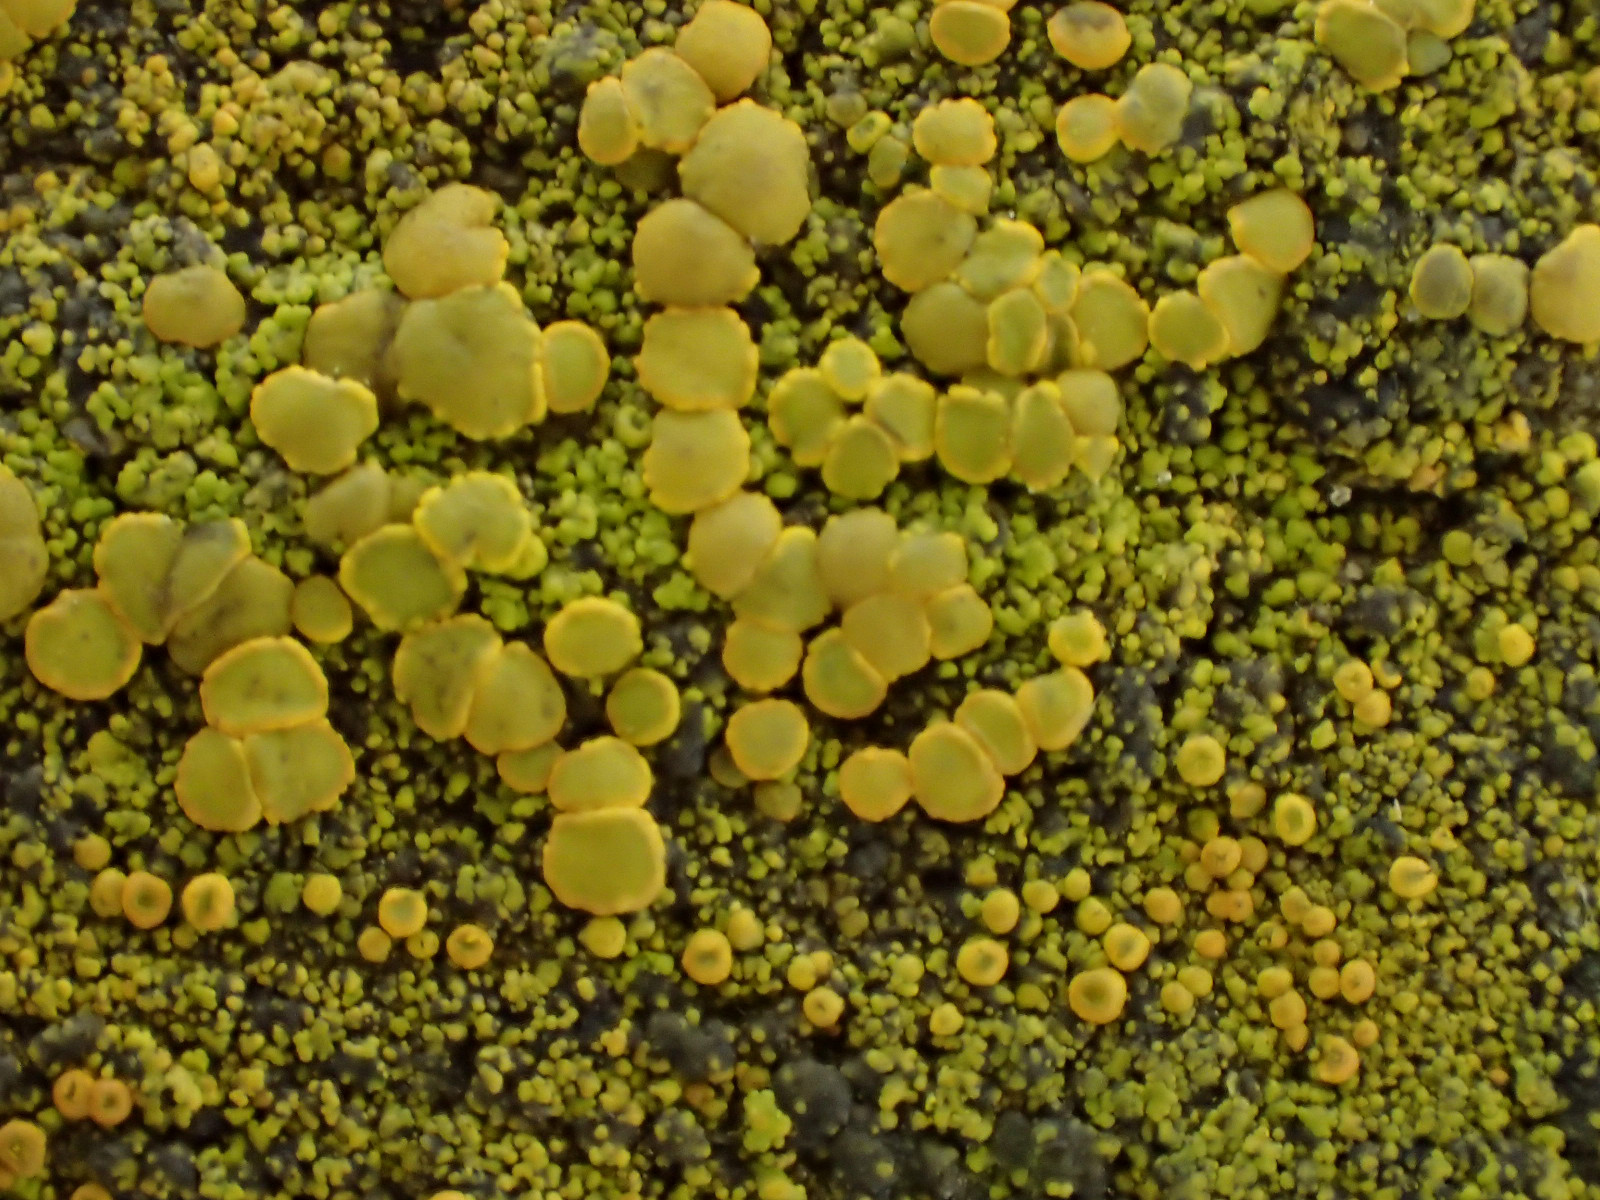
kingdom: Fungi
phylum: Ascomycota
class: Candelariomycetes
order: Candelariales
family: Candelariaceae
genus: Candelariella
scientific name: Candelariella vitellina
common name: almindelig æggeblommelav
